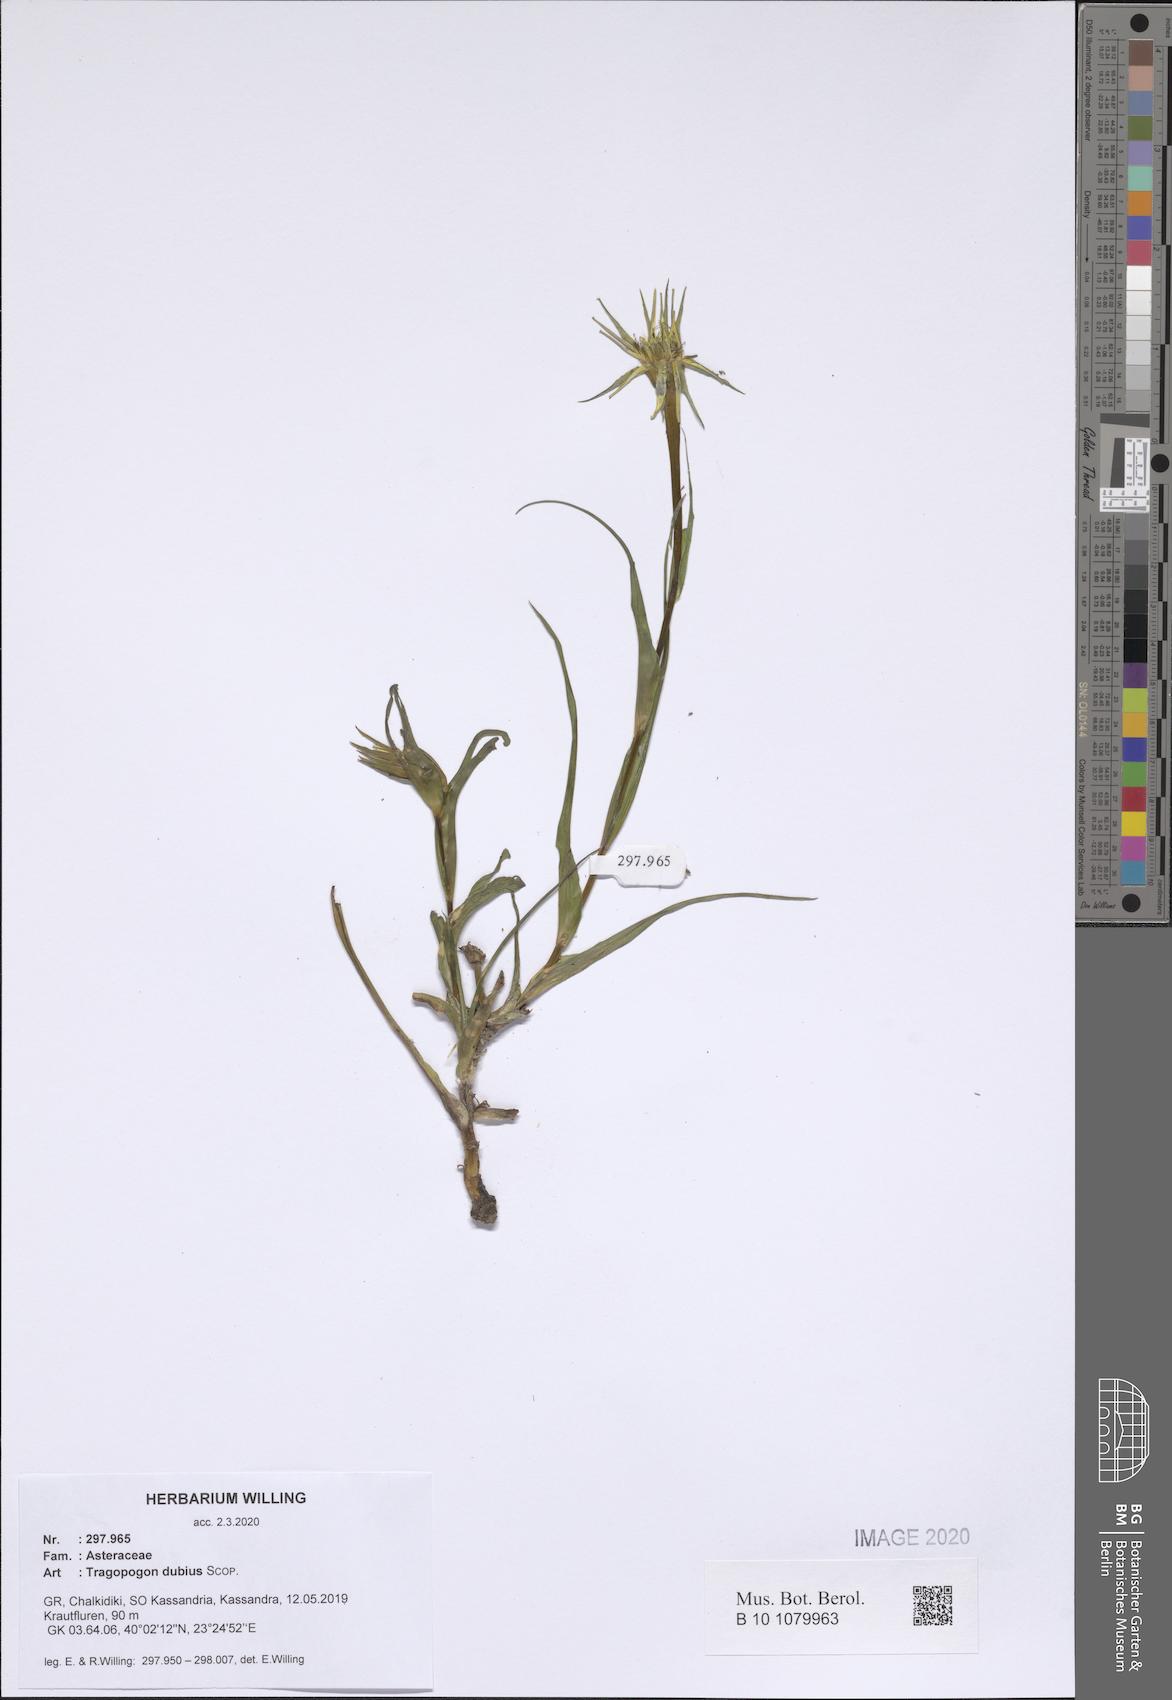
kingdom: Plantae
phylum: Tracheophyta
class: Magnoliopsida
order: Asterales
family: Asteraceae
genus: Tragopogon
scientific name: Tragopogon dubius
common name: Yellow salsify
